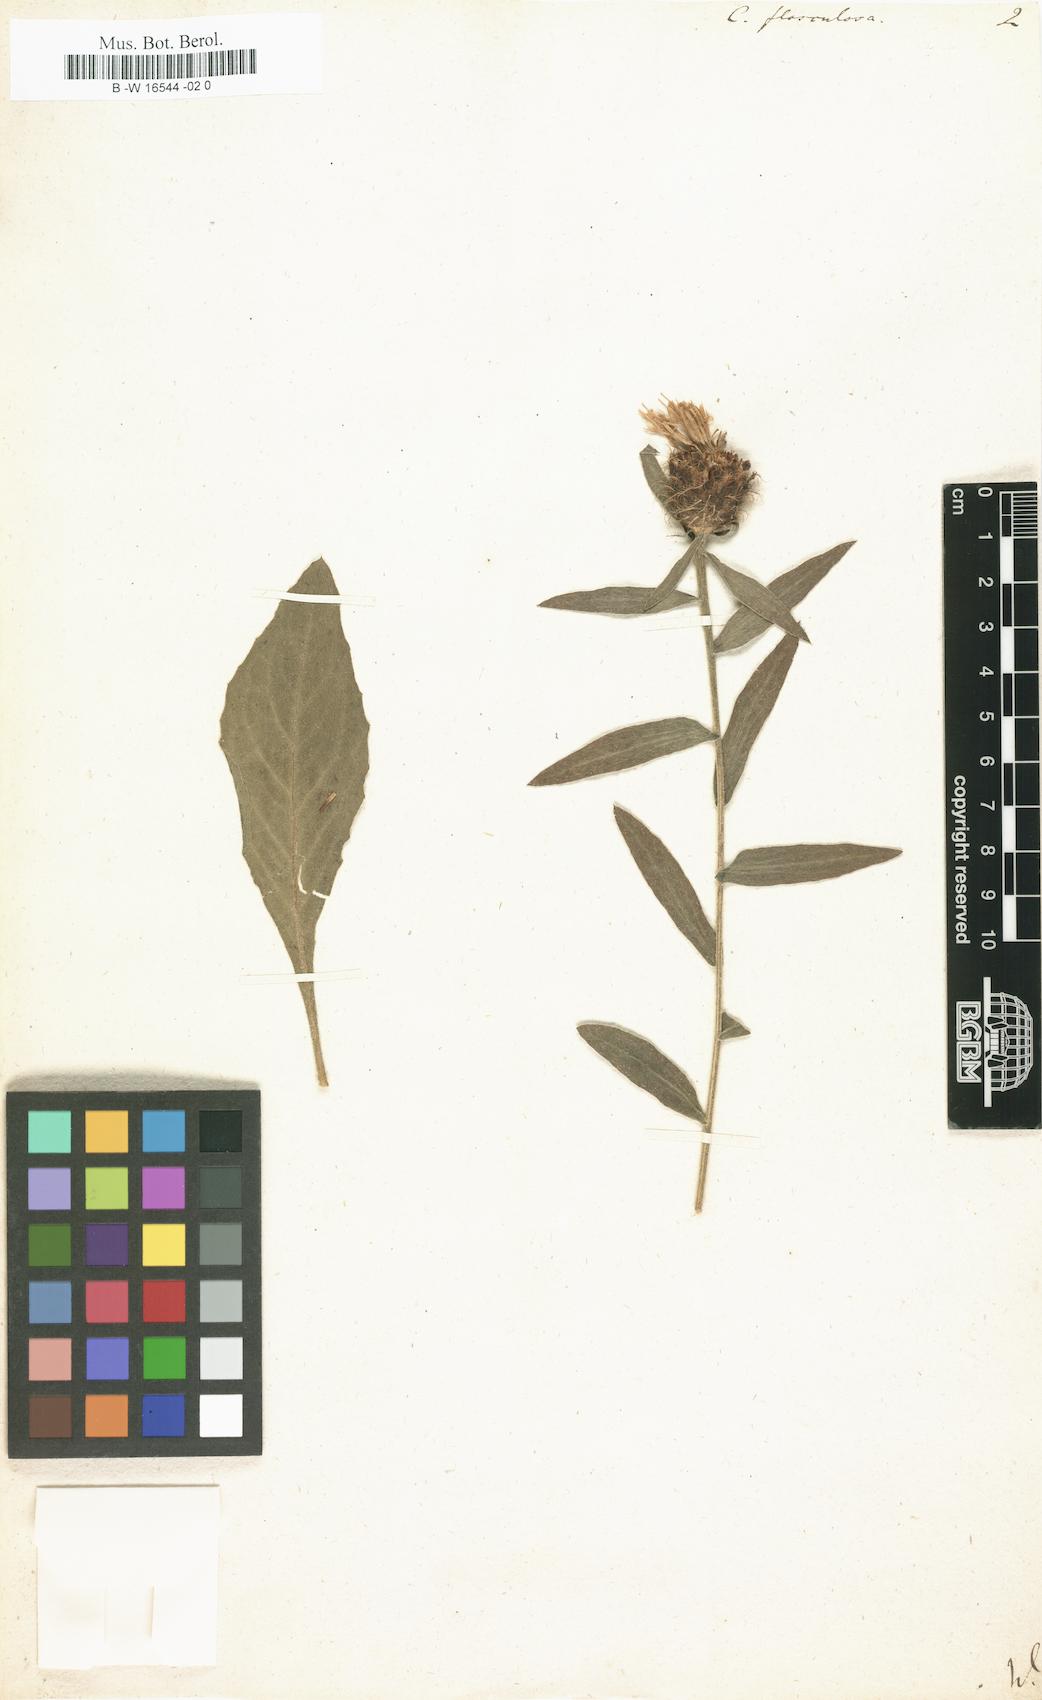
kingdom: Plantae
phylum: Tracheophyta
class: Magnoliopsida
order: Asterales
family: Asteraceae
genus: Centaurea
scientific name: Centaurea flosculosa
